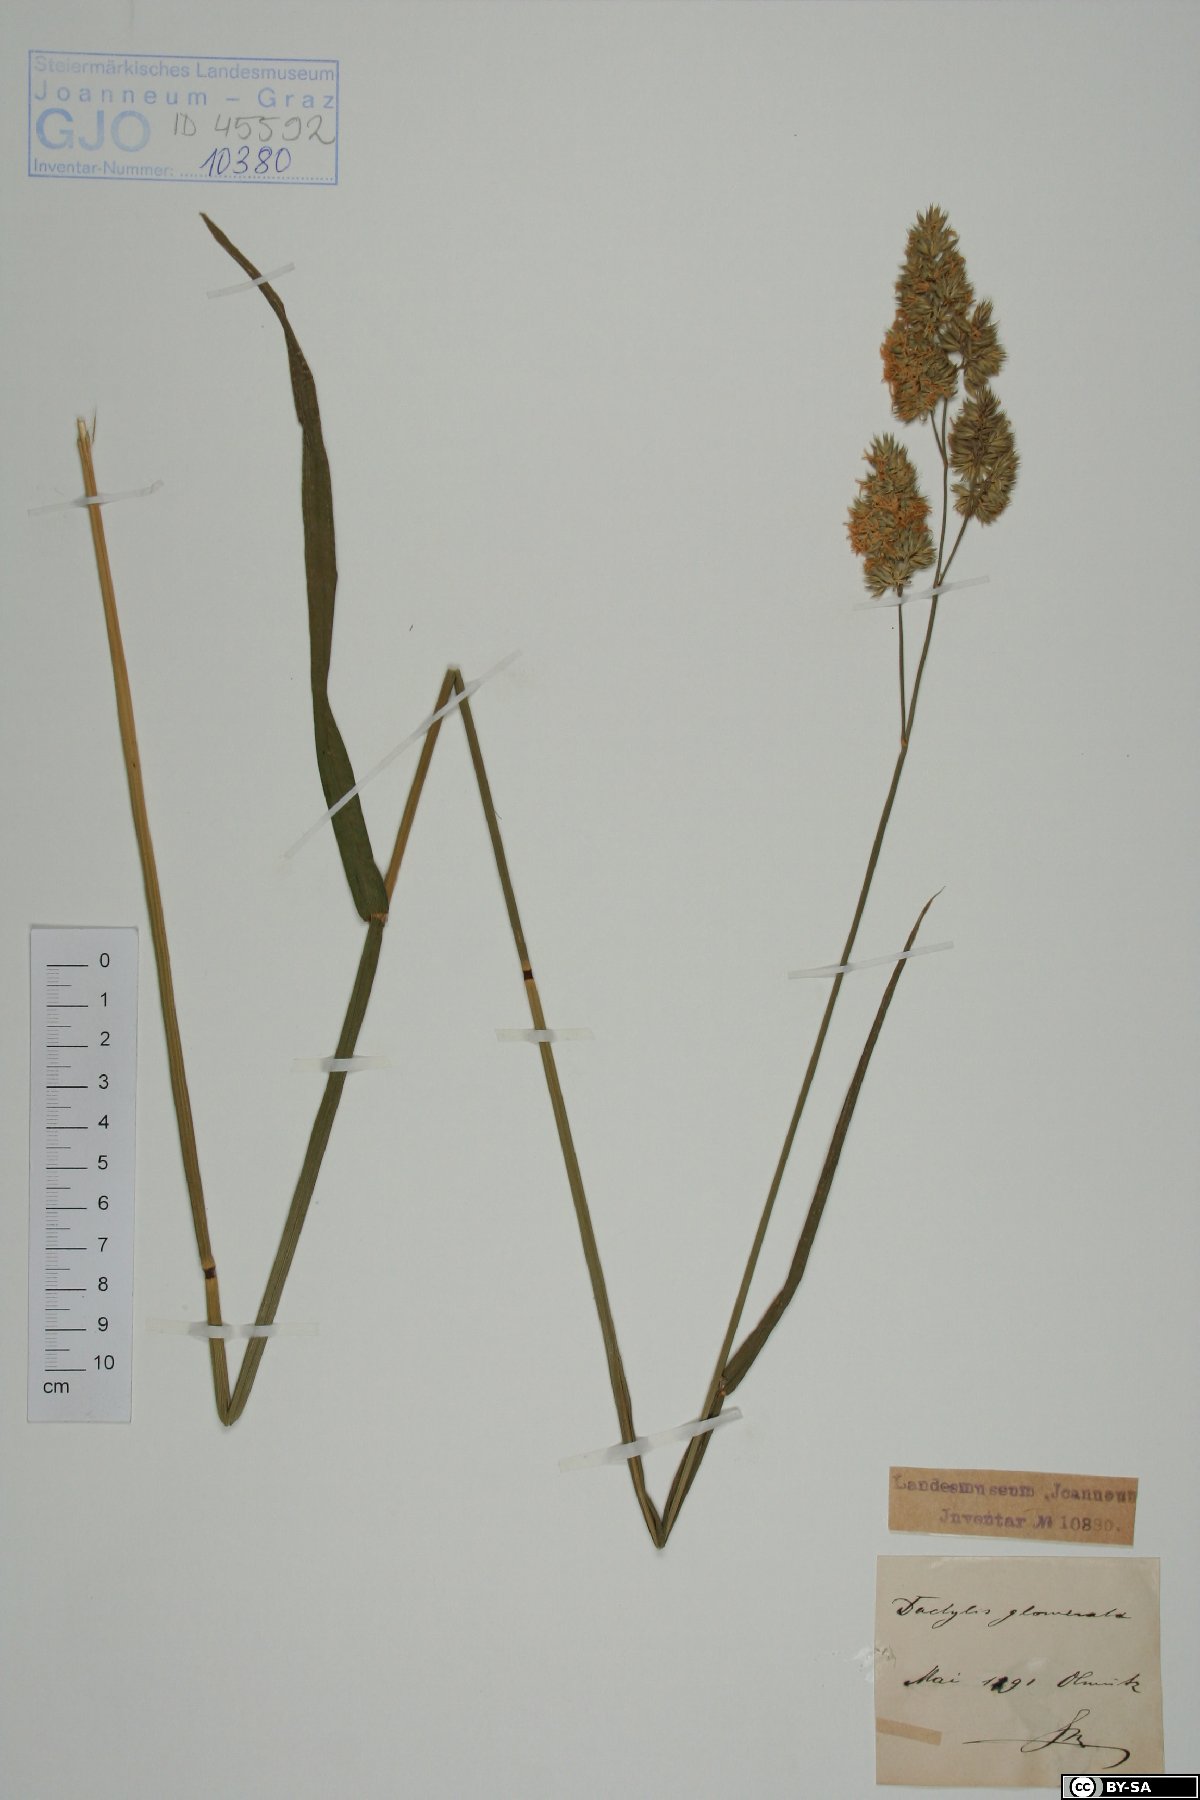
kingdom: Plantae
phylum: Tracheophyta
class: Liliopsida
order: Poales
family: Poaceae
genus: Dactylis
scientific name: Dactylis glomerata
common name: Orchardgrass
